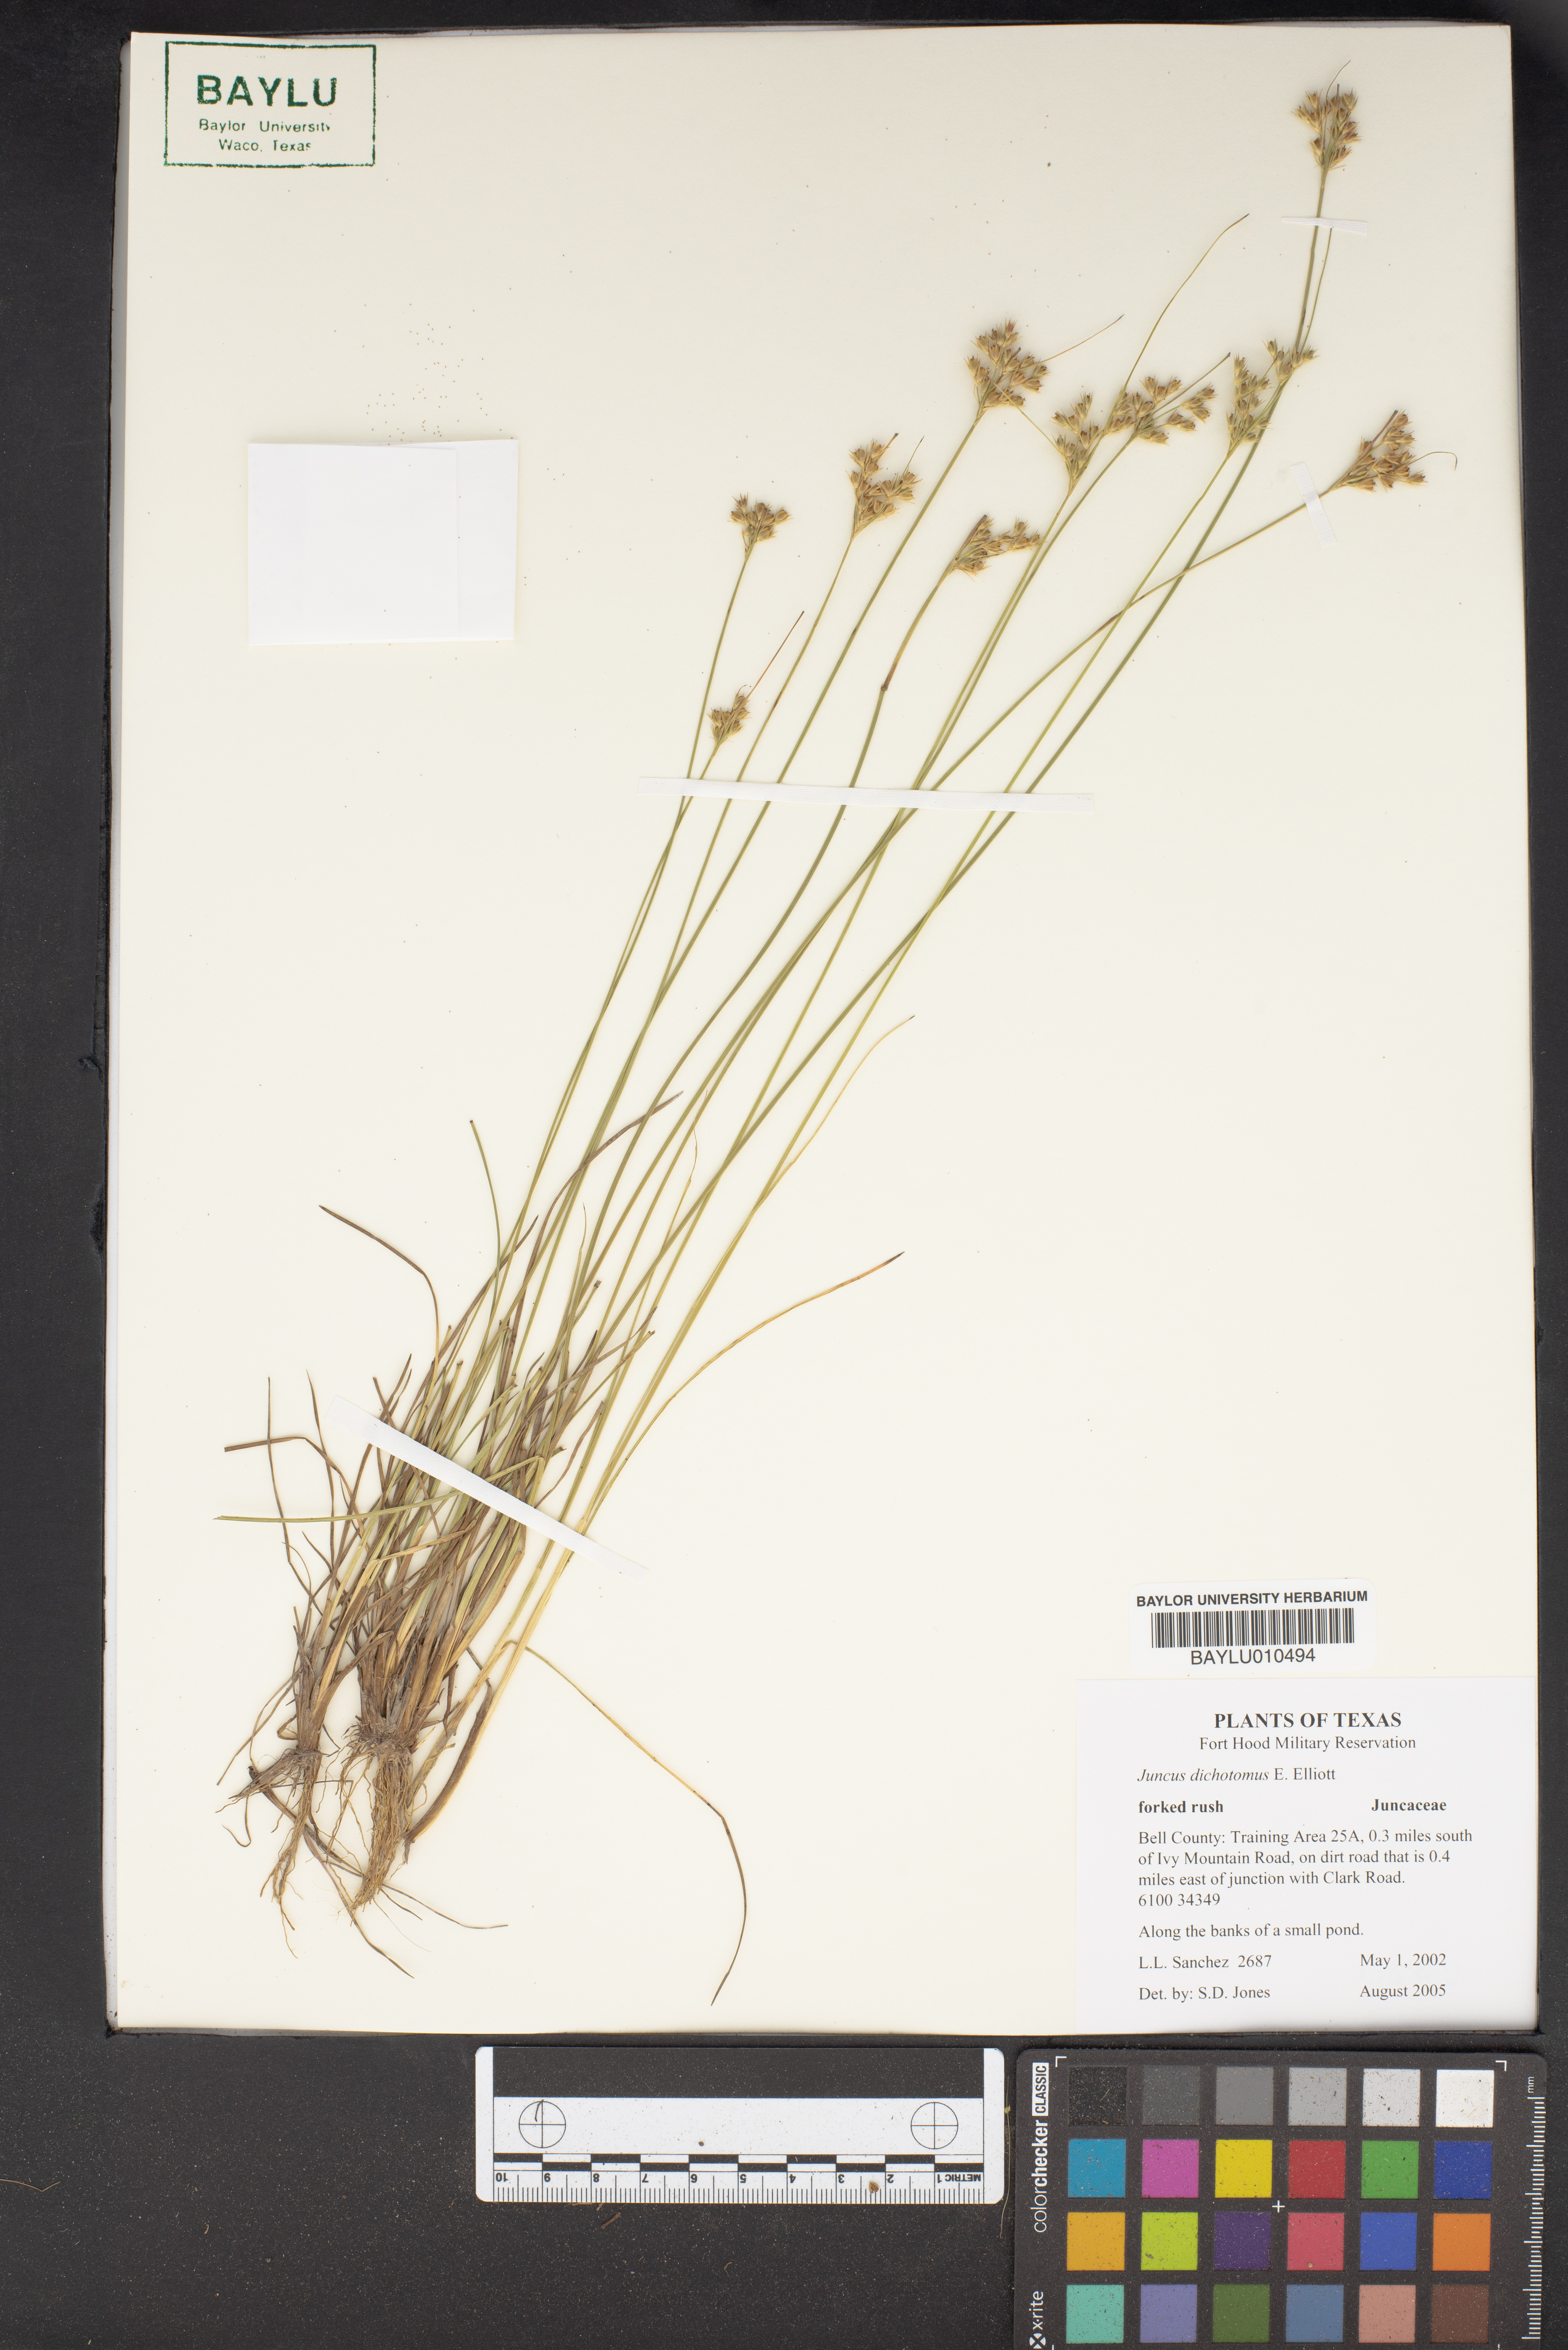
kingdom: Plantae
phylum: Tracheophyta
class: Liliopsida
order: Poales
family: Juncaceae
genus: Juncus
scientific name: Juncus dichotomus
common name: Forked rush
